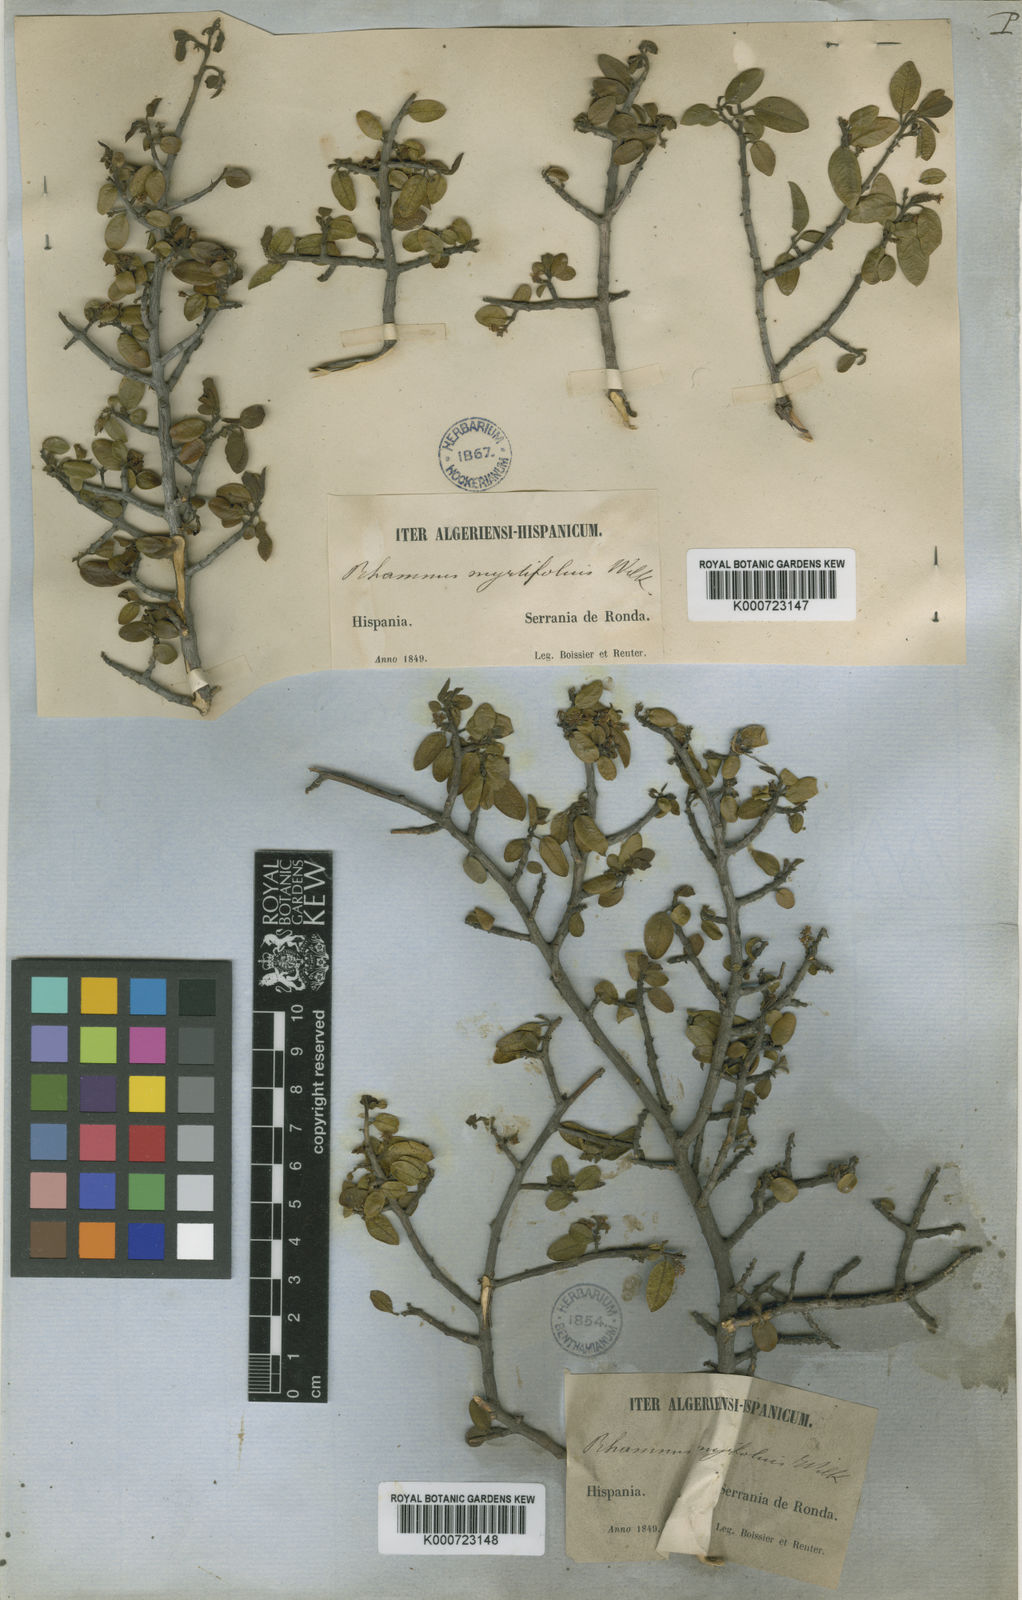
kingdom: Plantae
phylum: Tracheophyta
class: Magnoliopsida
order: Rosales
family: Rhamnaceae
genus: Rhamnus
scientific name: Rhamnus myrtifolia
